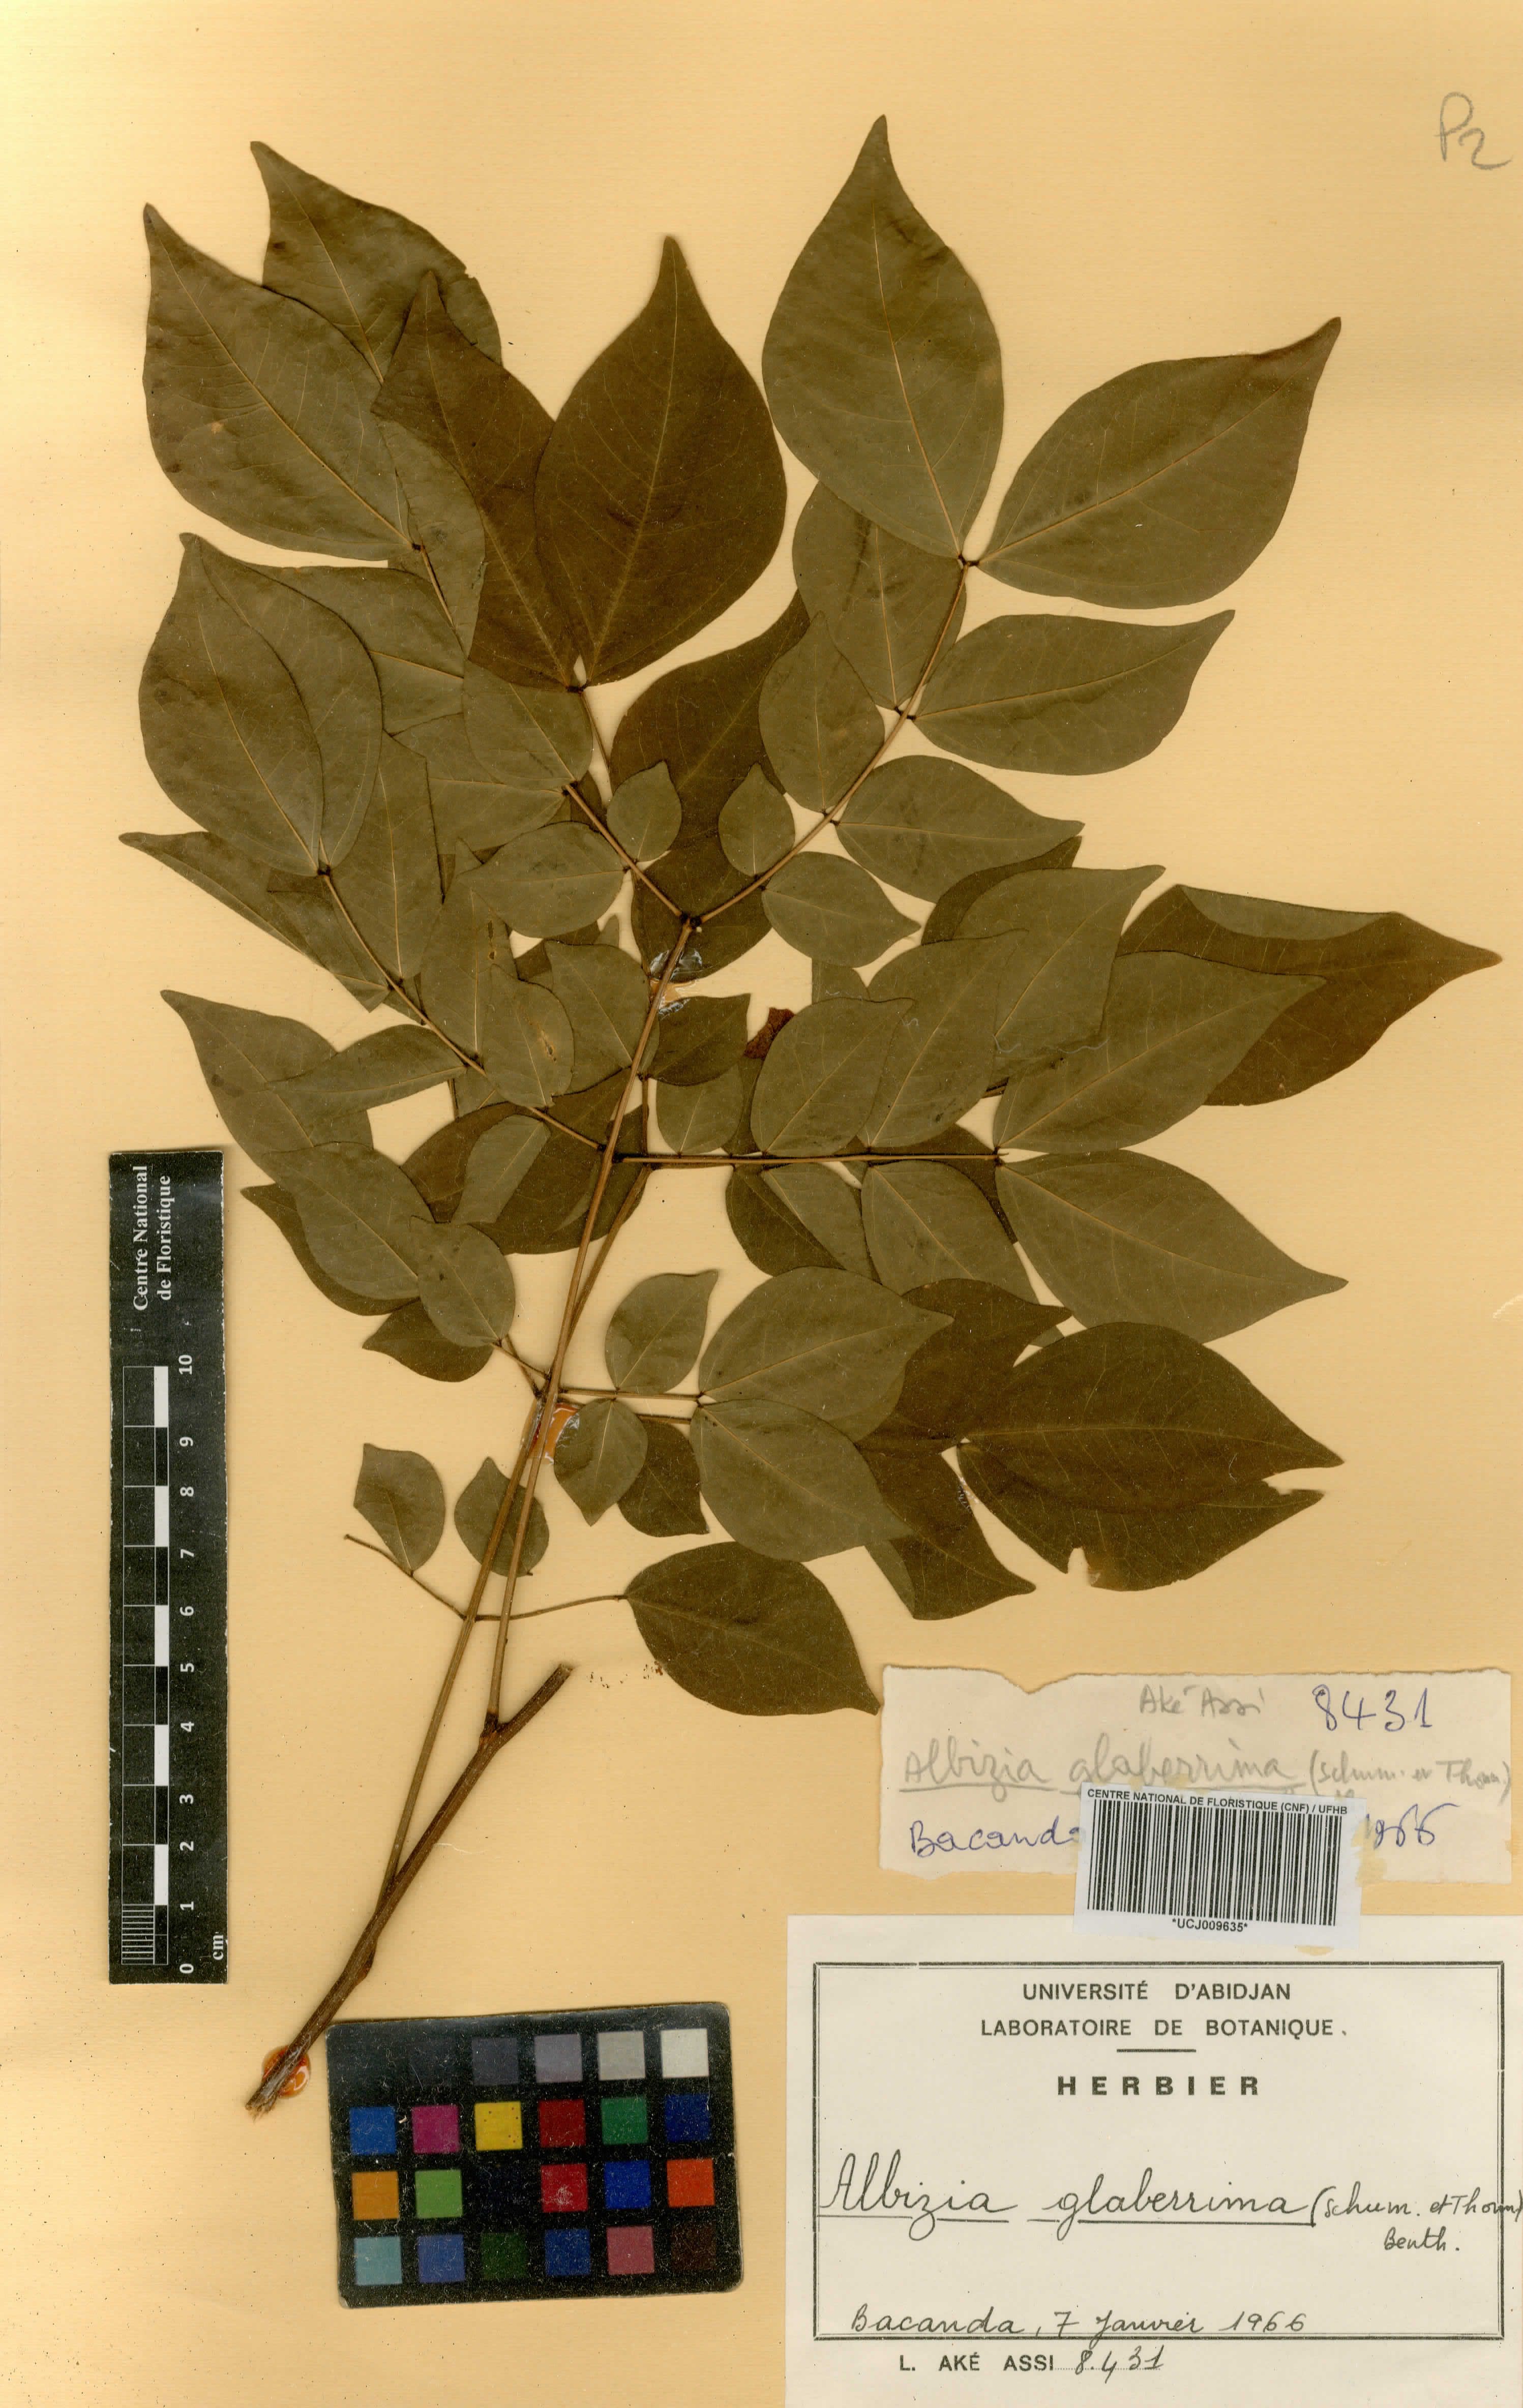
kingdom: Plantae
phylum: Tracheophyta
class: Magnoliopsida
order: Fabales
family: Fabaceae
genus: Albizia
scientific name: Albizia glaberrima
